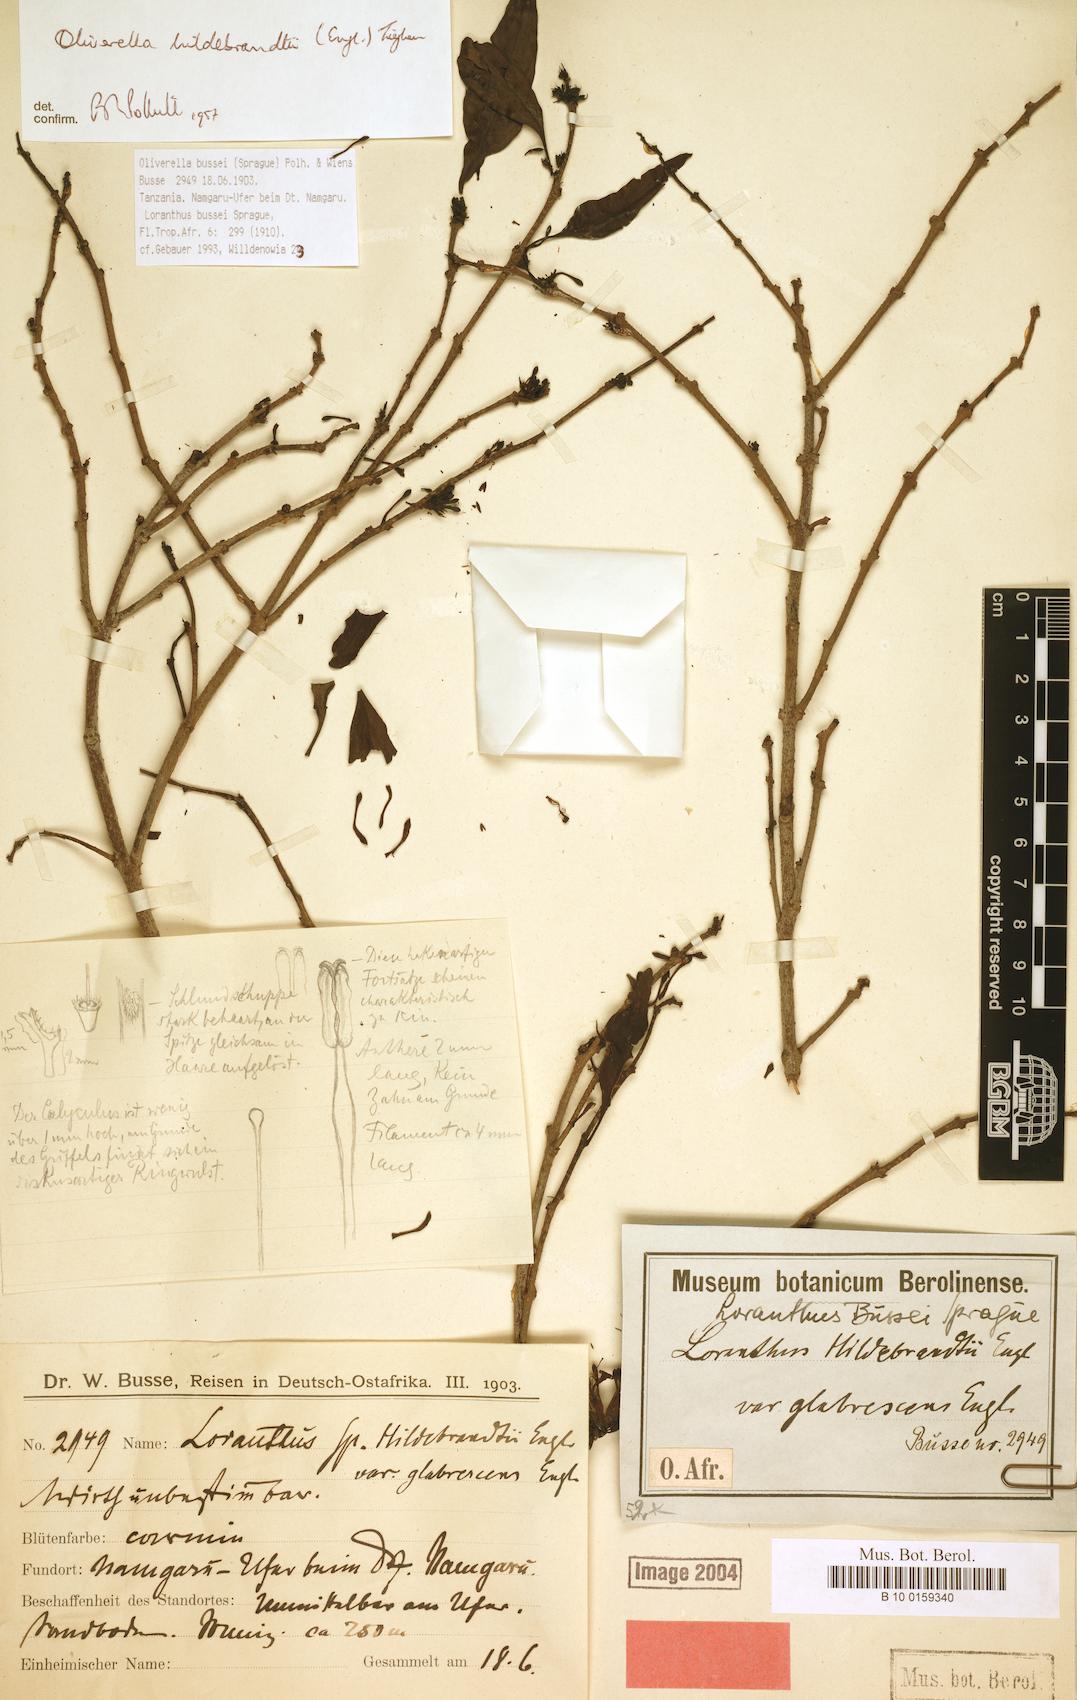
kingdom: Plantae
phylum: Tracheophyta
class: Magnoliopsida
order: Santalales
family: Loranthaceae
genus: Oliverella
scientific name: Oliverella bussei
